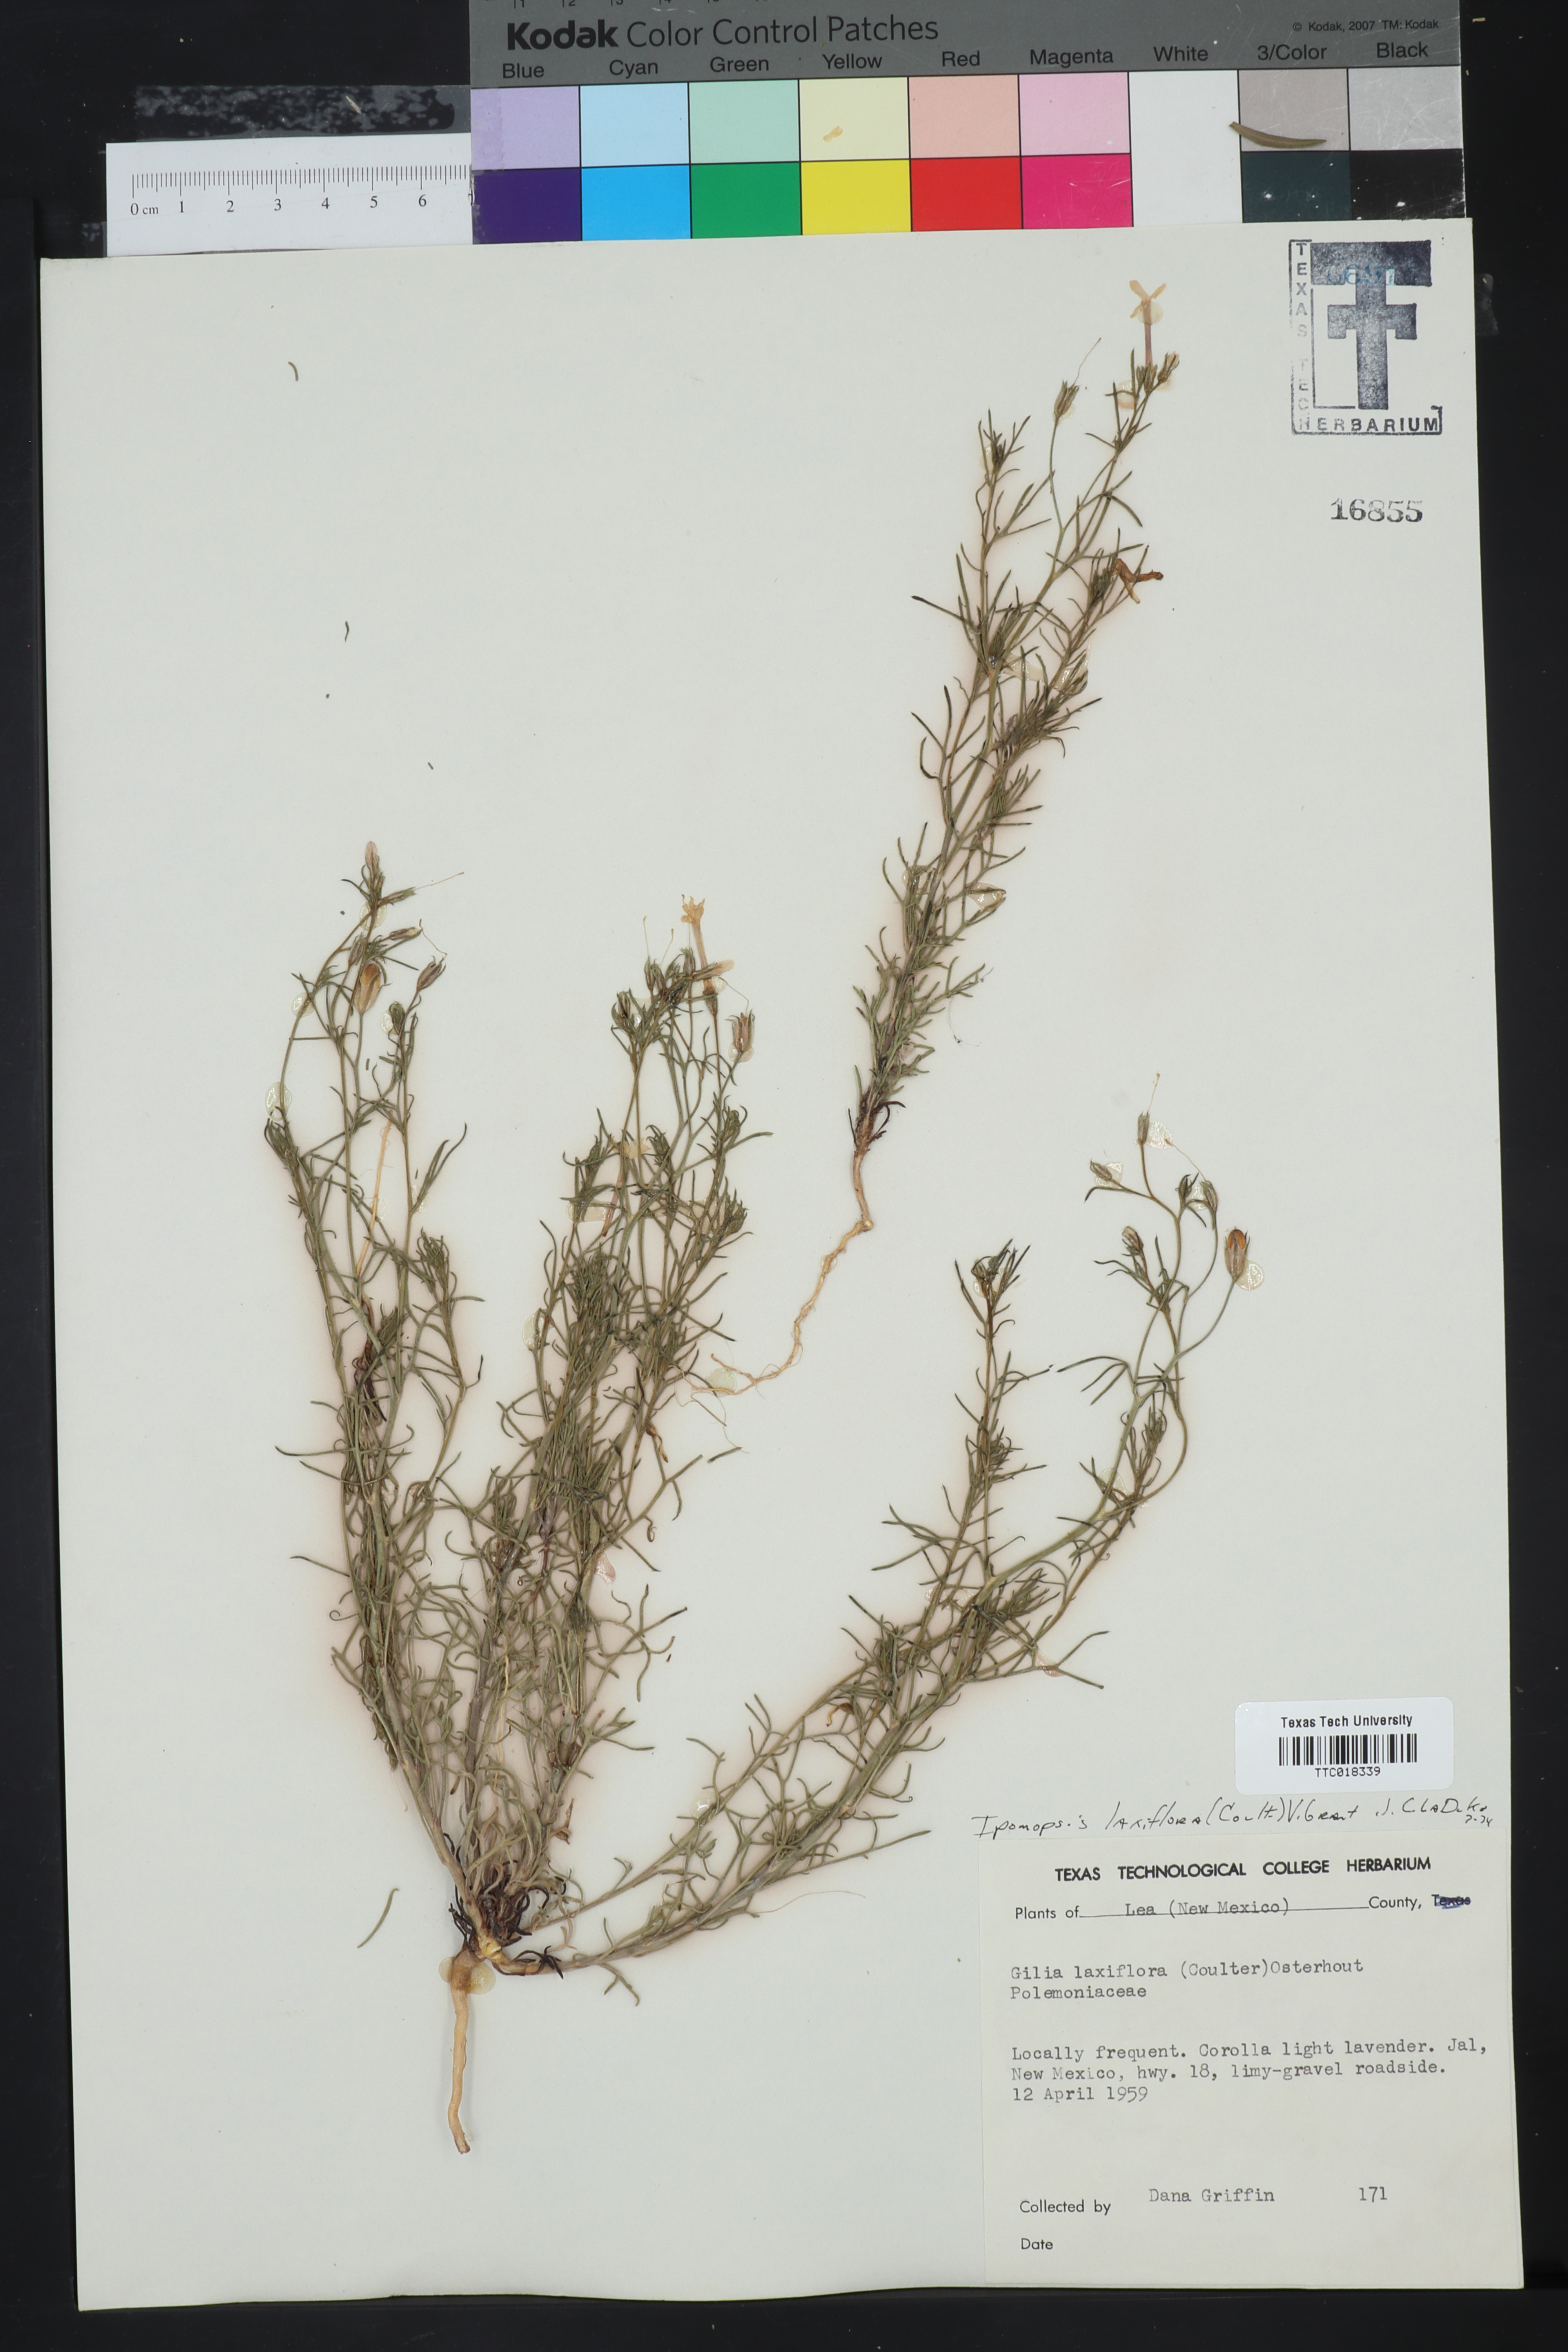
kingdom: Plantae
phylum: Tracheophyta
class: Magnoliopsida
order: Ericales
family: Polemoniaceae
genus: Ipomopsis
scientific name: Ipomopsis laxiflora
